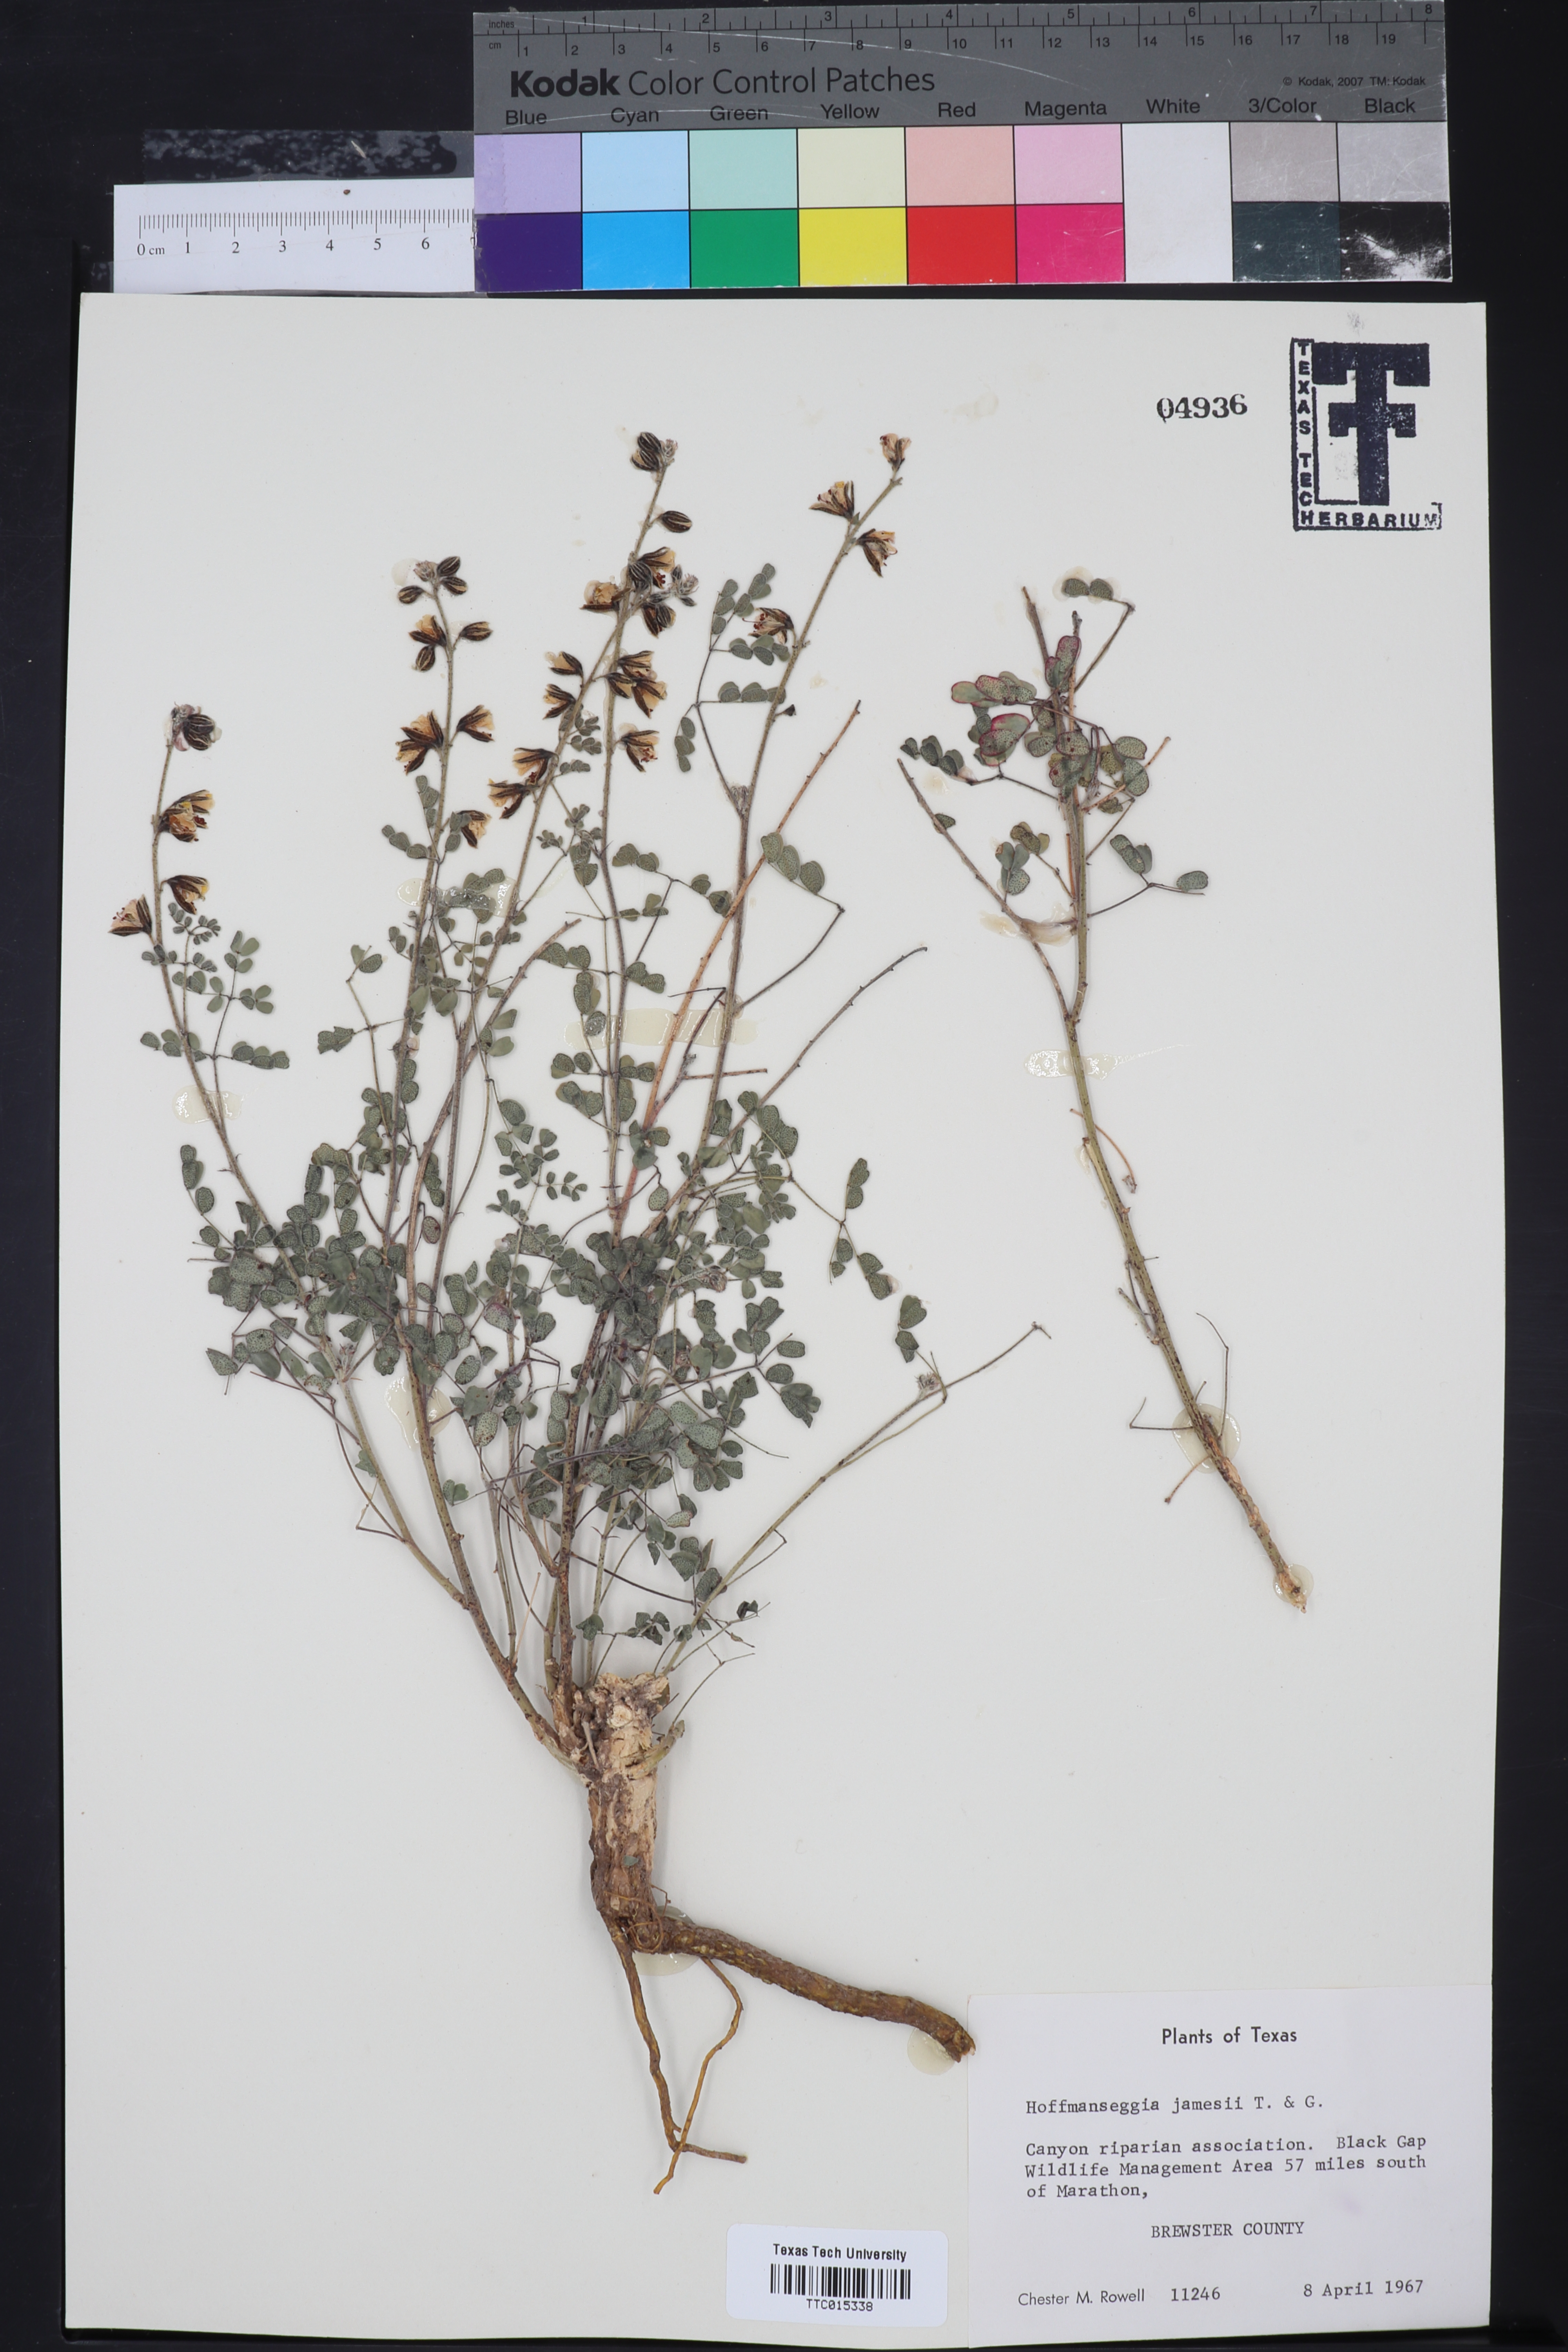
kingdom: Plantae
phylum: Tracheophyta
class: Magnoliopsida
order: Fabales
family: Fabaceae
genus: Pomaria
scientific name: Pomaria jamesii
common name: James' caesalpinia
